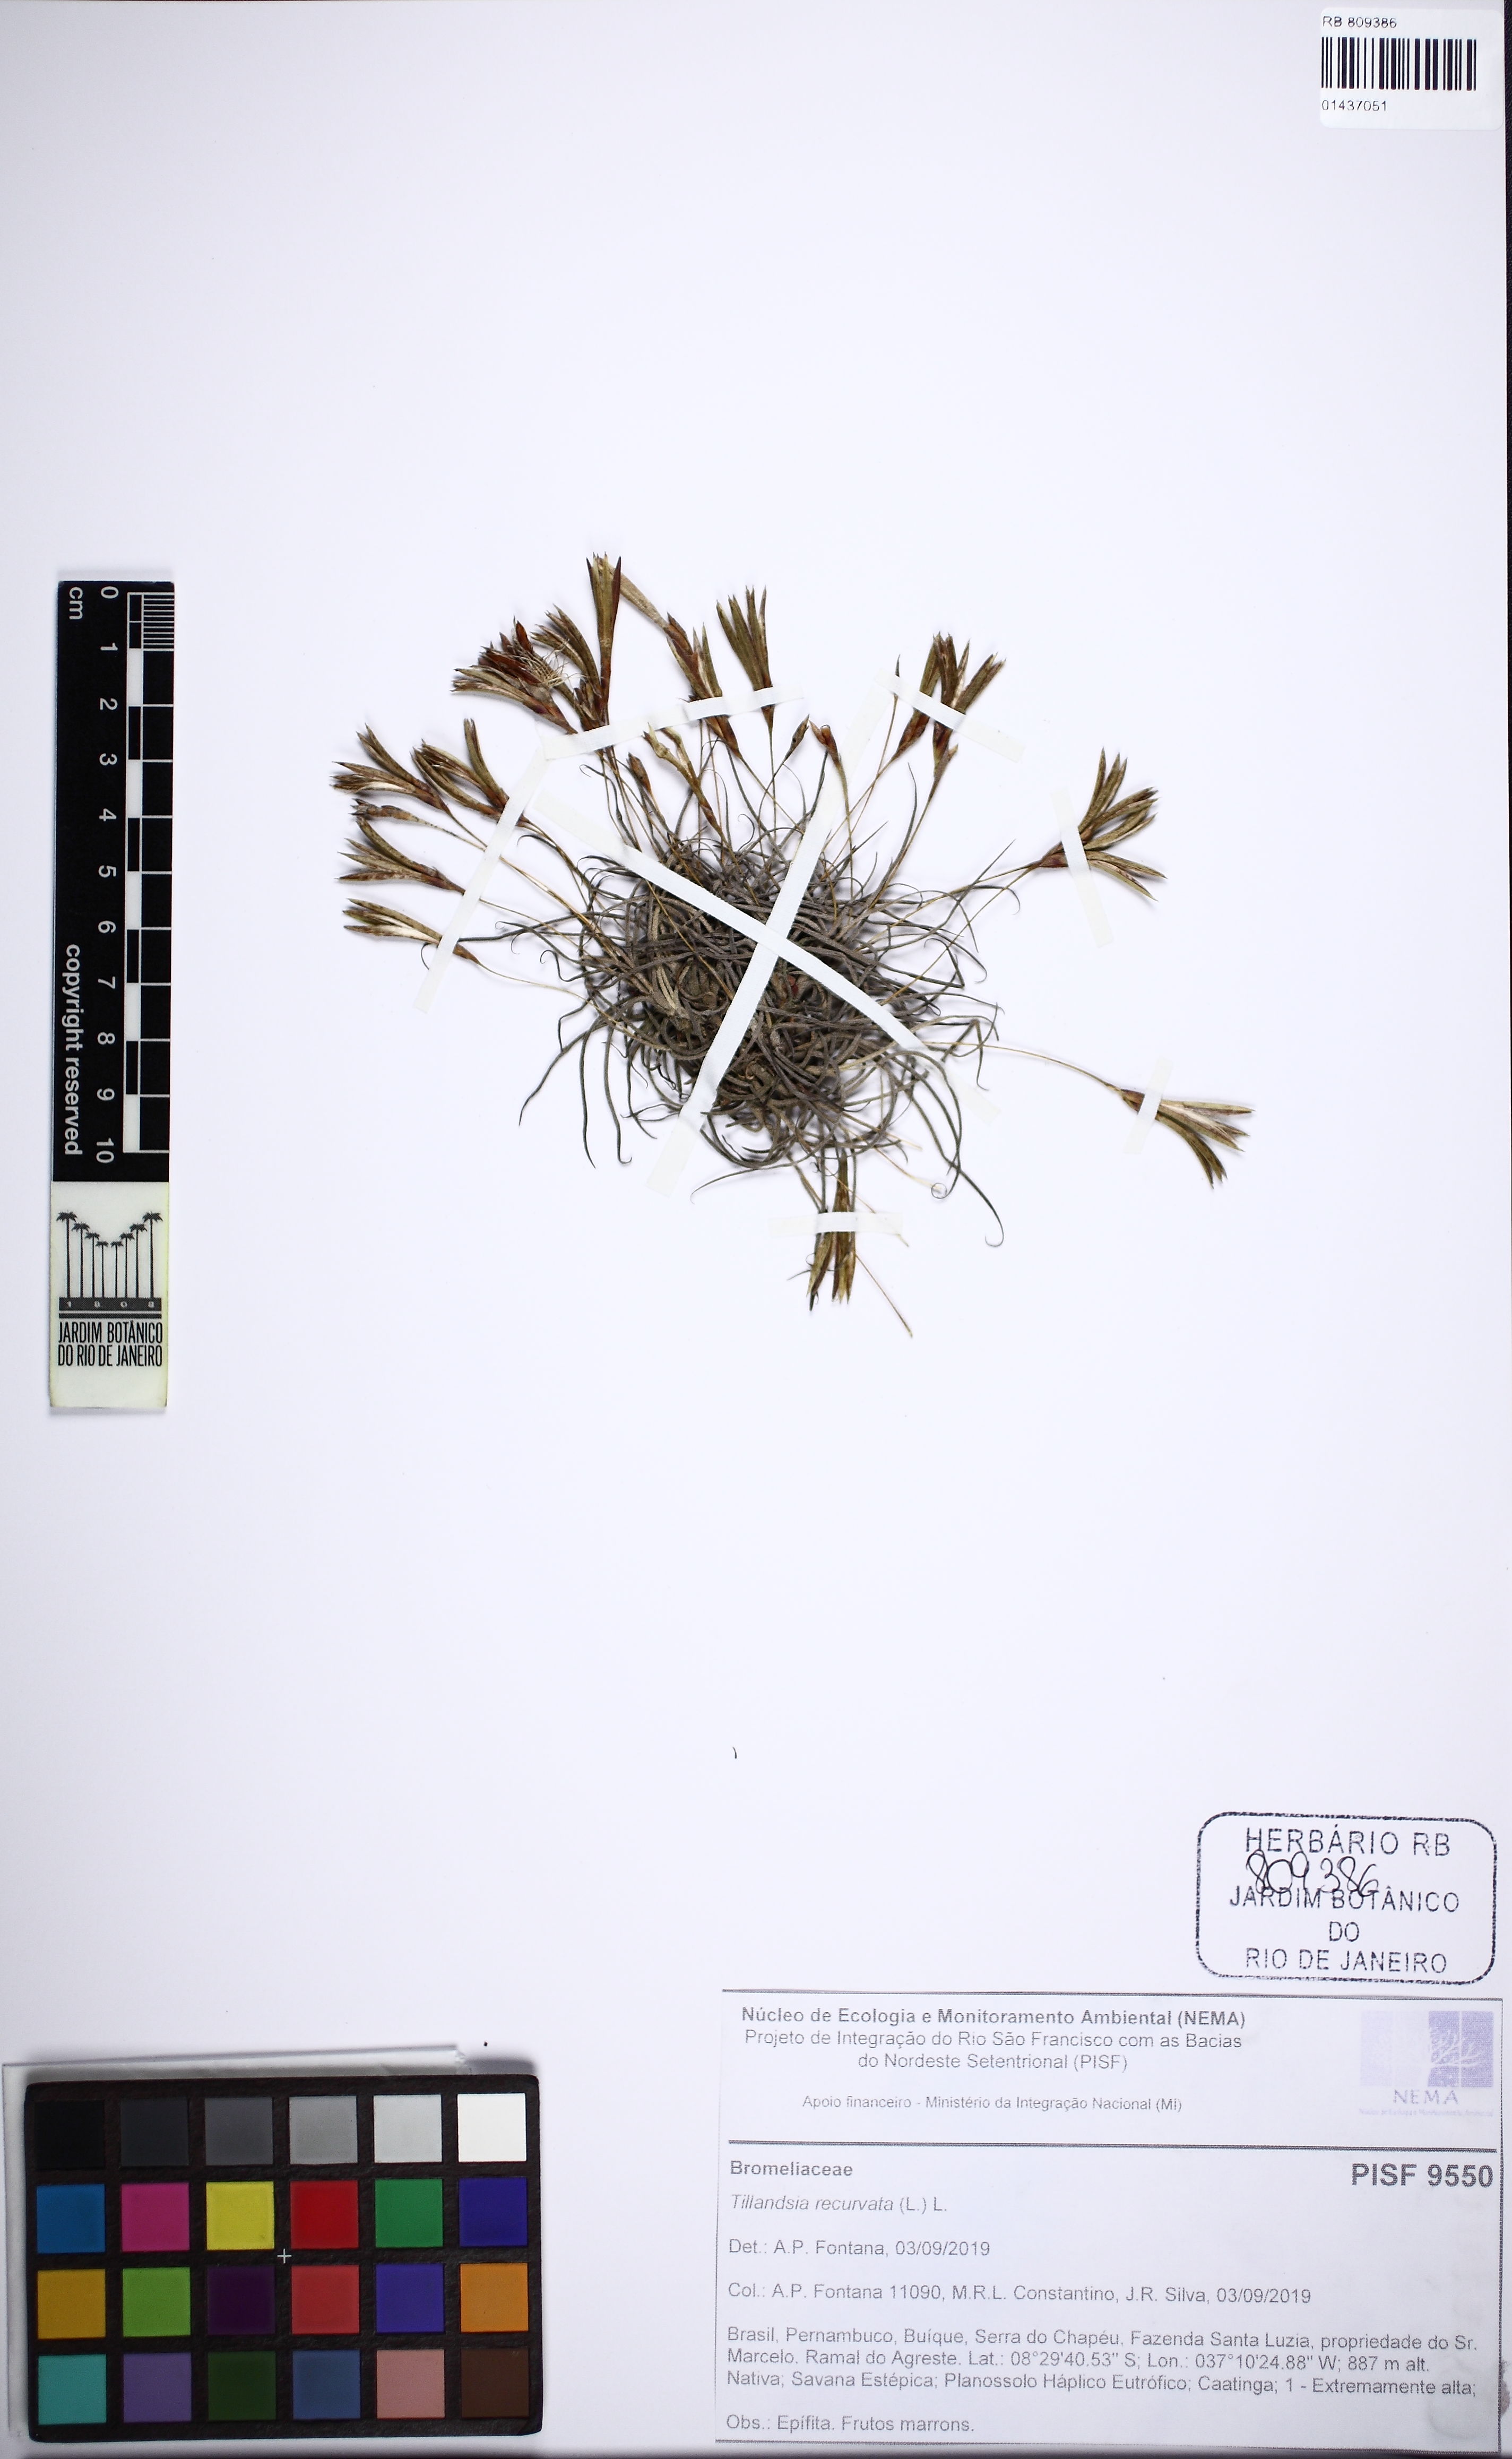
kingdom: Plantae
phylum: Tracheophyta
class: Liliopsida
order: Poales
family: Bromeliaceae
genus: Tillandsia
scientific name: Tillandsia recurvata
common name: Small ballmoss
